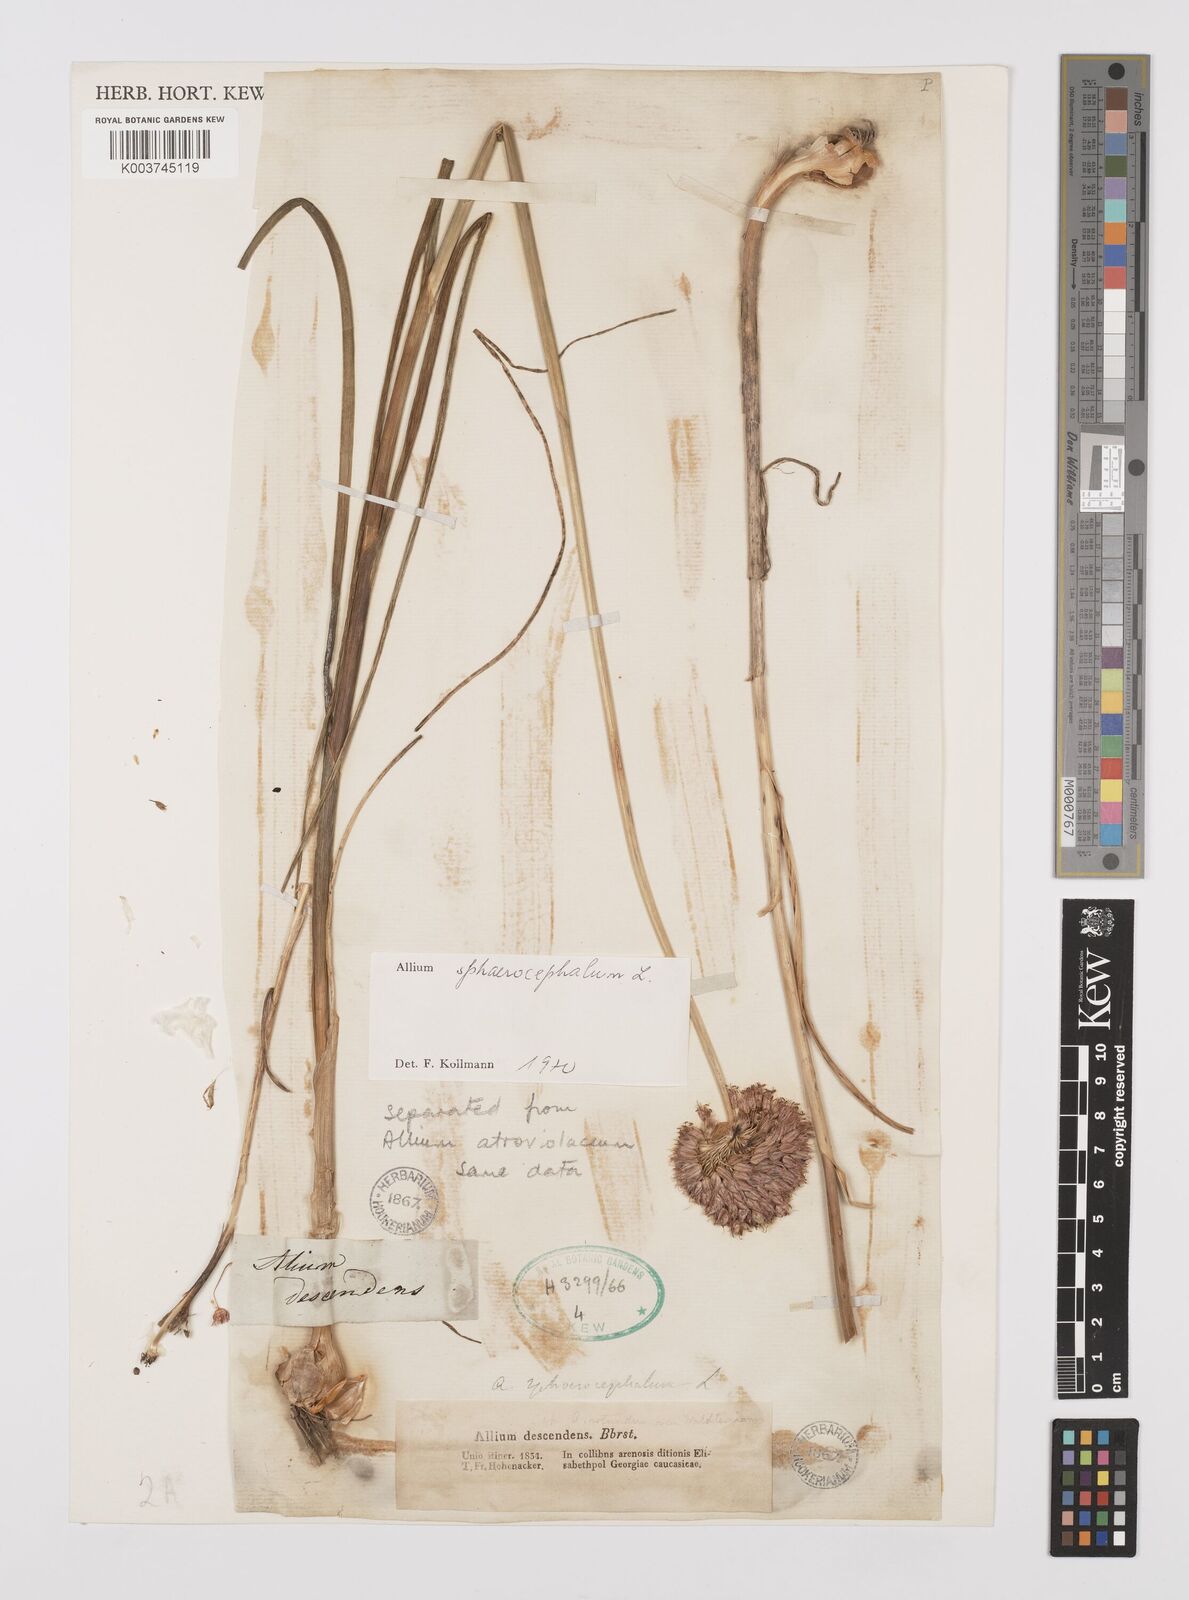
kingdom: Plantae
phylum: Tracheophyta
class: Liliopsida
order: Asparagales
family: Amaryllidaceae
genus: Allium
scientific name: Allium vineale
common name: Crow garlic
